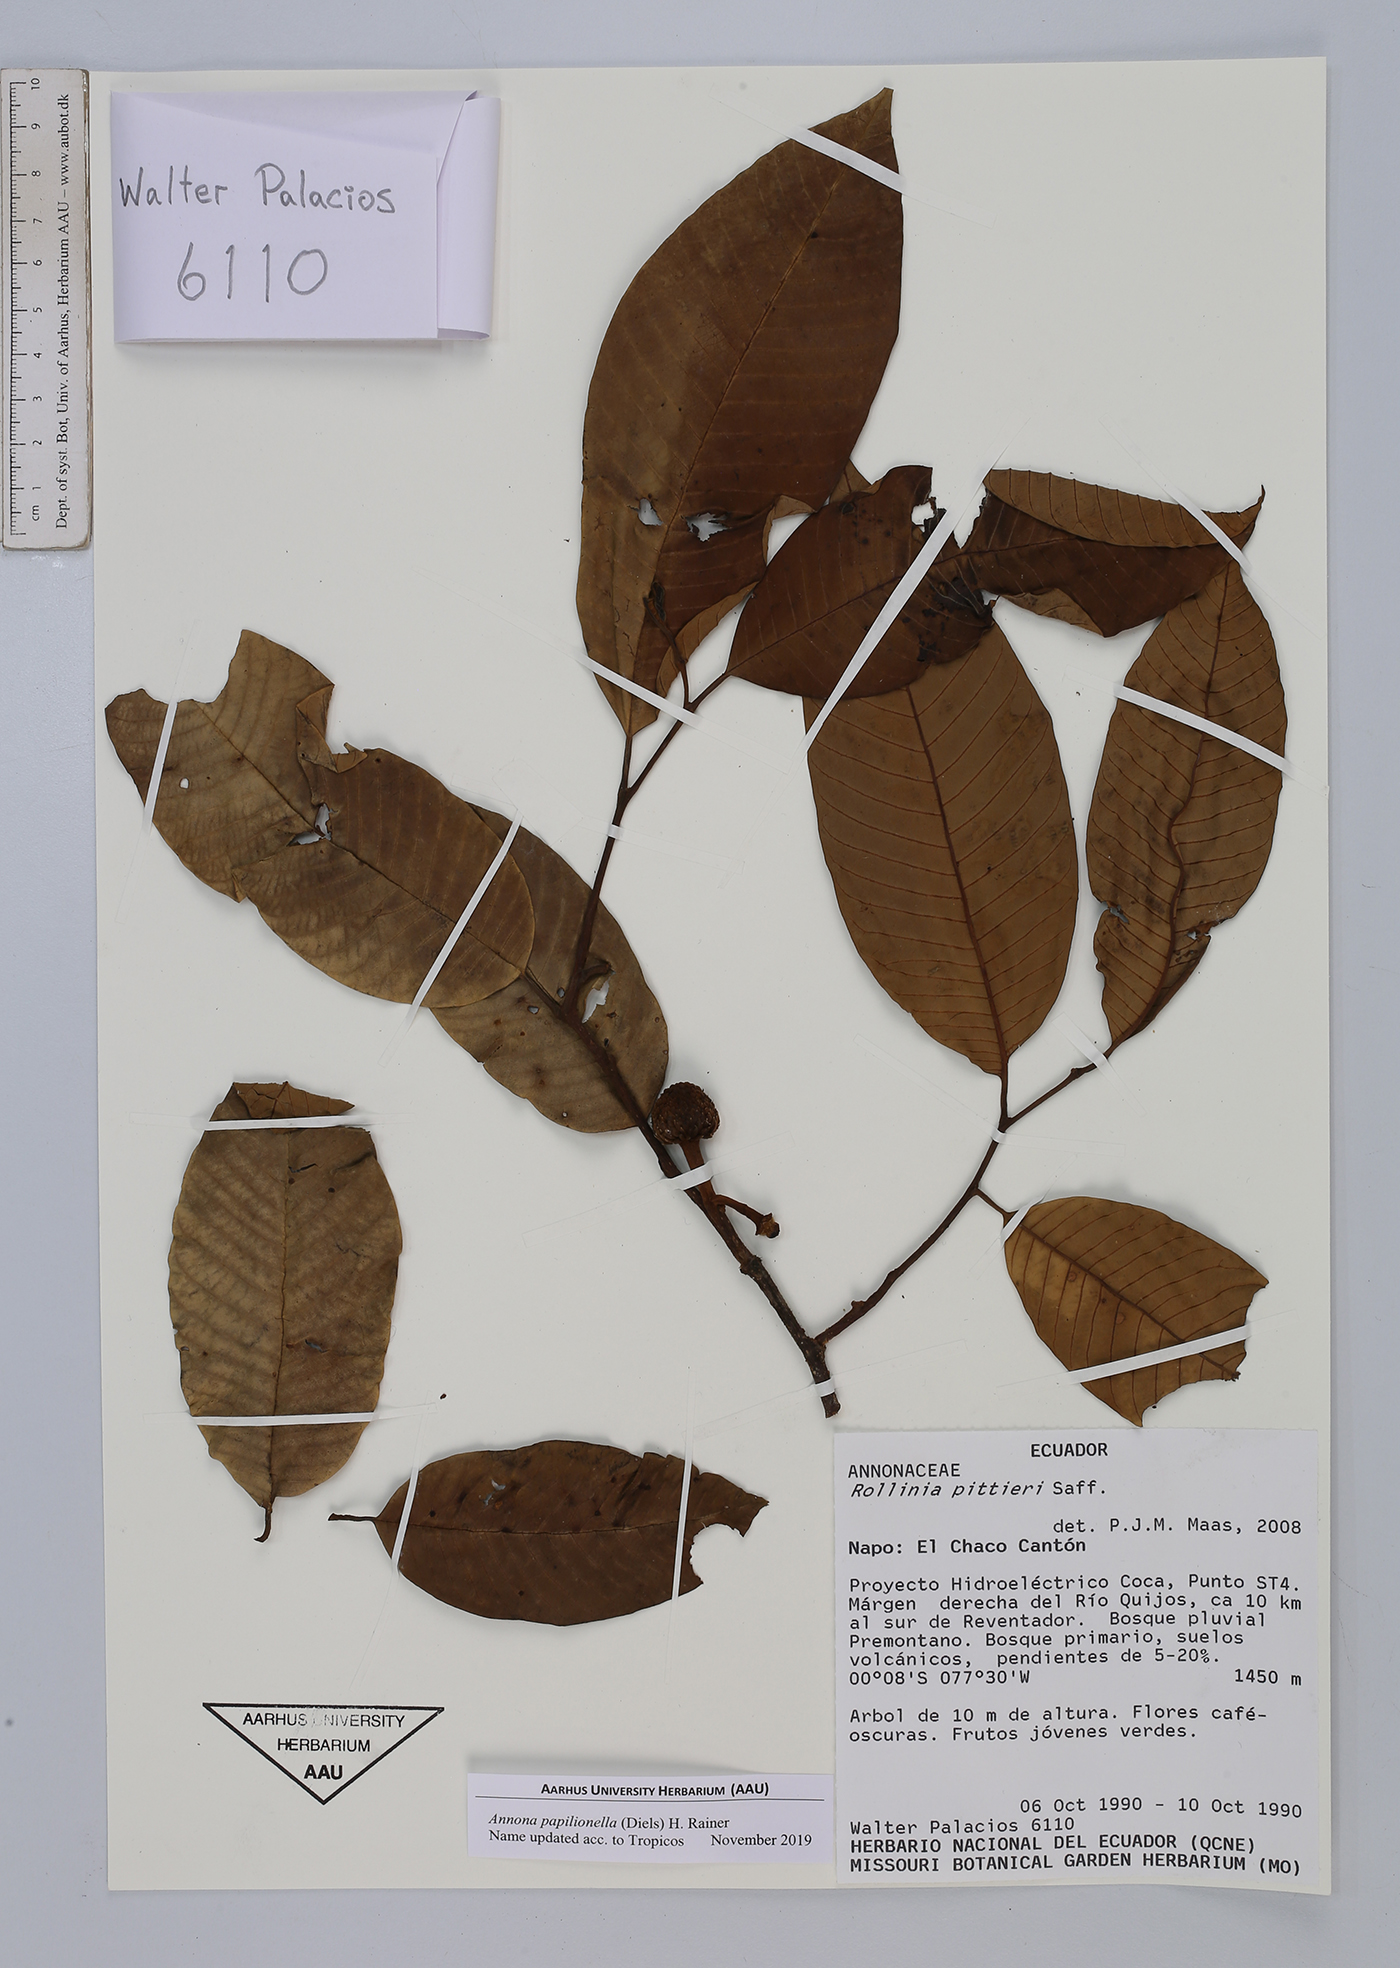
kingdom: Plantae
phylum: Tracheophyta
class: Magnoliopsida
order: Magnoliales
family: Annonaceae
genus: Annona
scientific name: Annona papilionella
